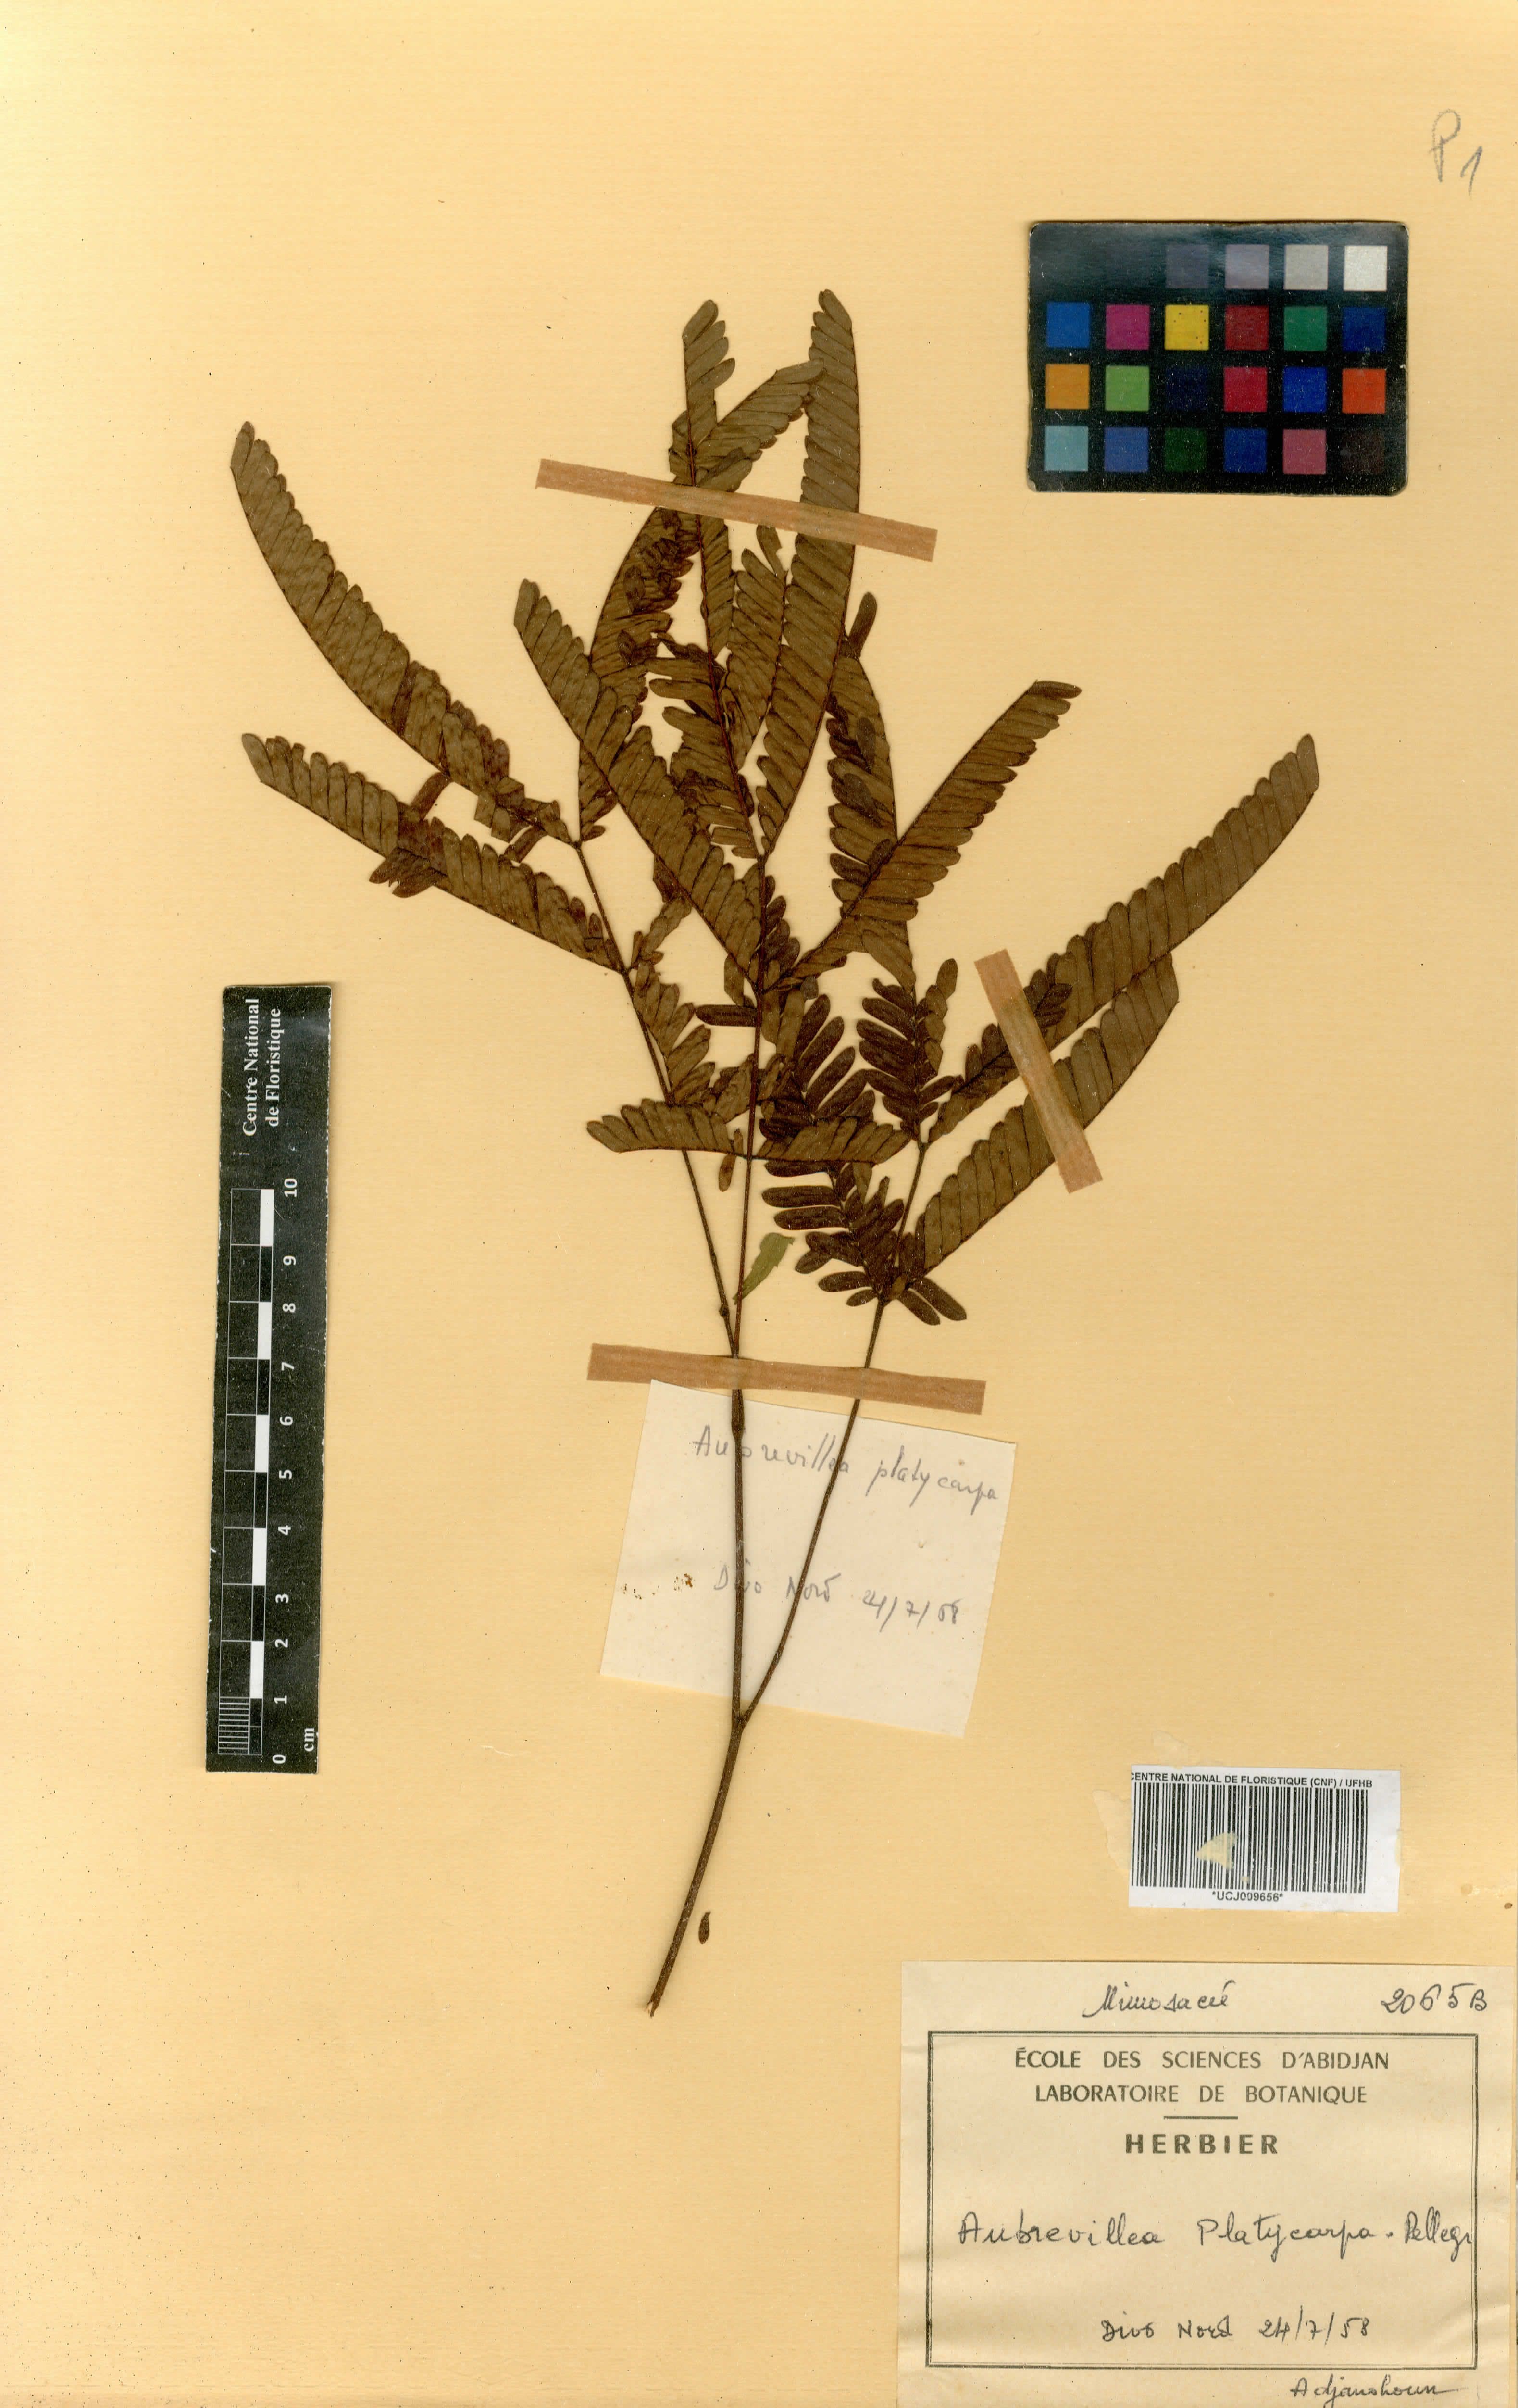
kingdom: Plantae
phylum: Tracheophyta
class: Magnoliopsida
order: Fabales
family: Fabaceae
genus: Aubrevillea
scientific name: Aubrevillea platicarpa
